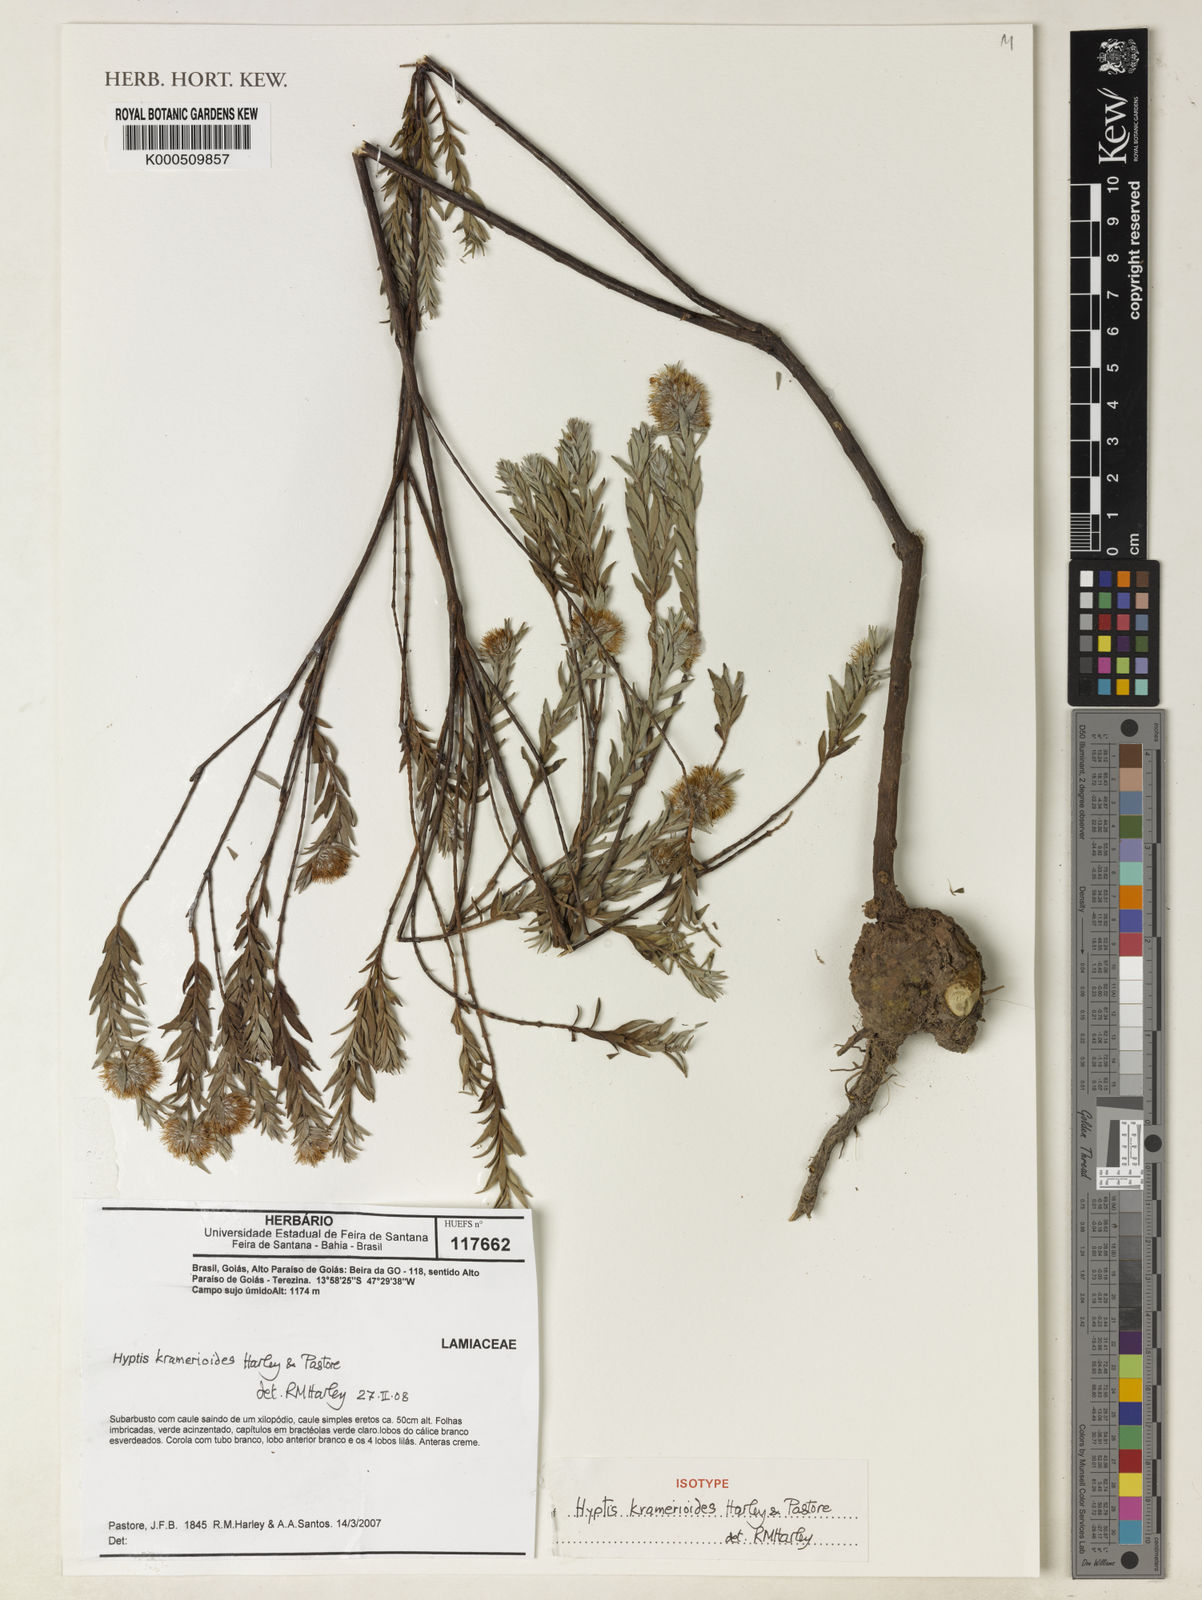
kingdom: Plantae
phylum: Tracheophyta
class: Magnoliopsida
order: Lamiales
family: Lamiaceae
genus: Hyptis
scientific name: Hyptis kramerioides
